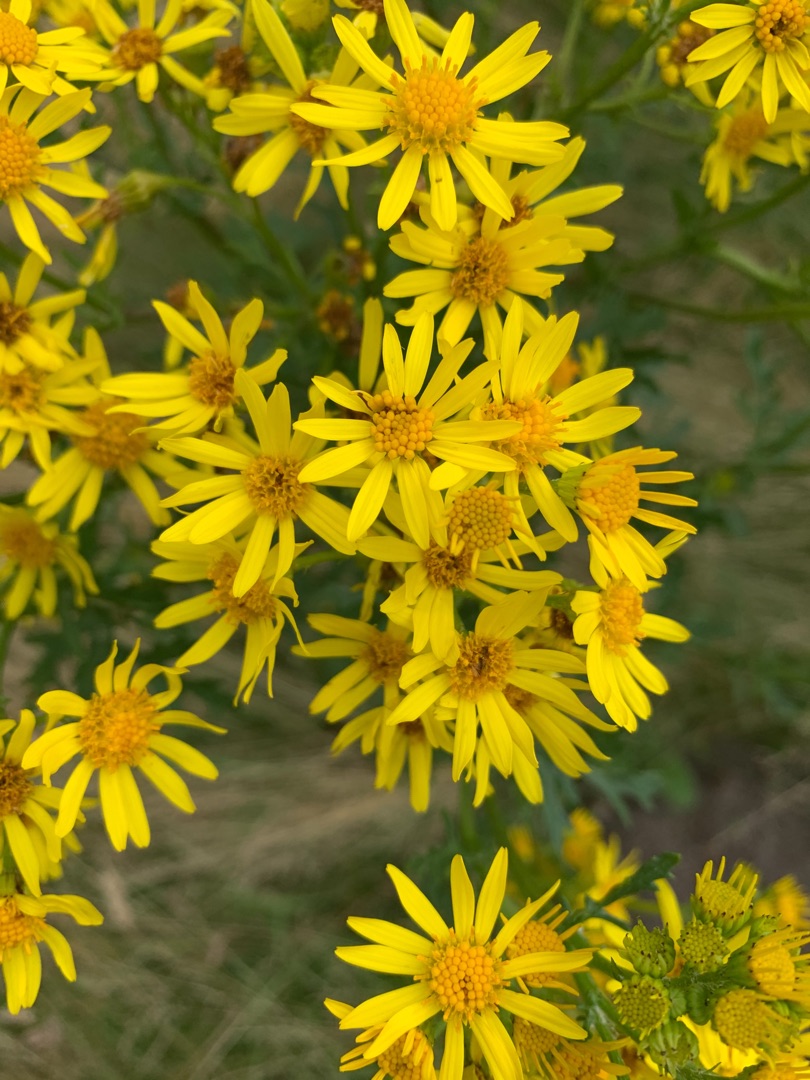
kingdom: Plantae
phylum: Tracheophyta
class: Magnoliopsida
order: Asterales
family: Asteraceae
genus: Jacobaea
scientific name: Jacobaea
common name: Jacobaea
